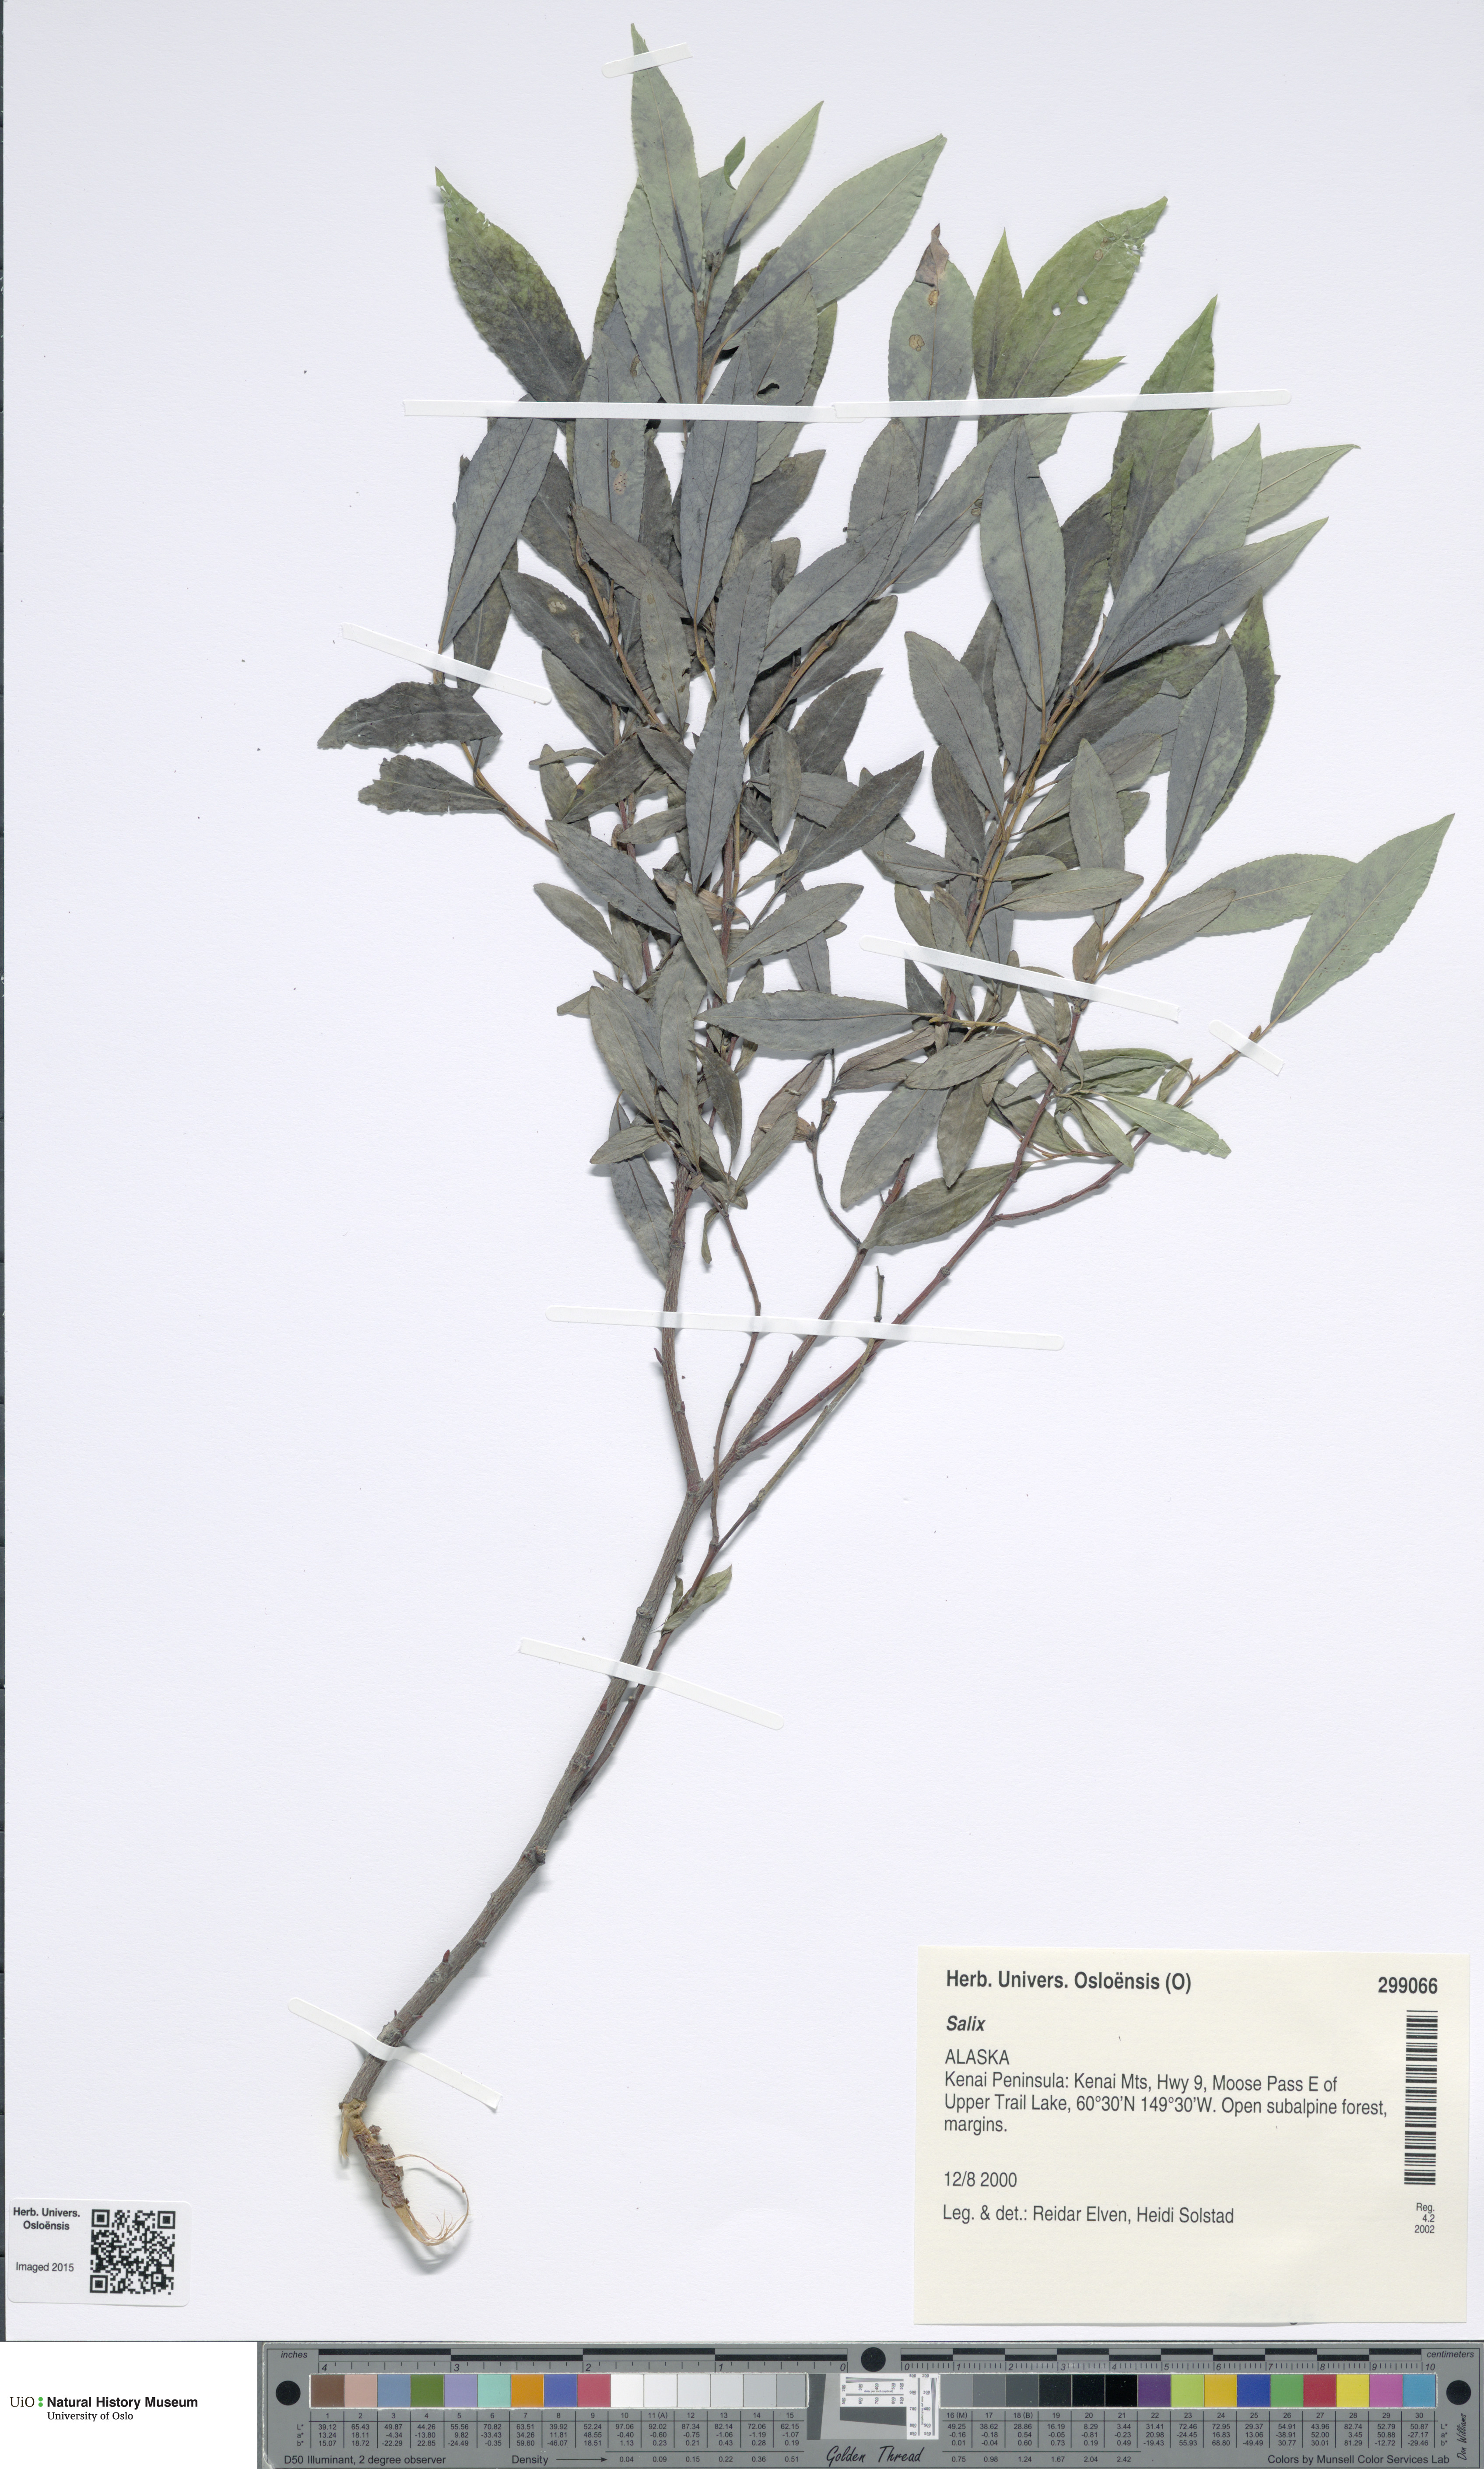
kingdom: Plantae
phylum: Tracheophyta
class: Magnoliopsida
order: Malpighiales
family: Salicaceae
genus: Salix
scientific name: Salix
